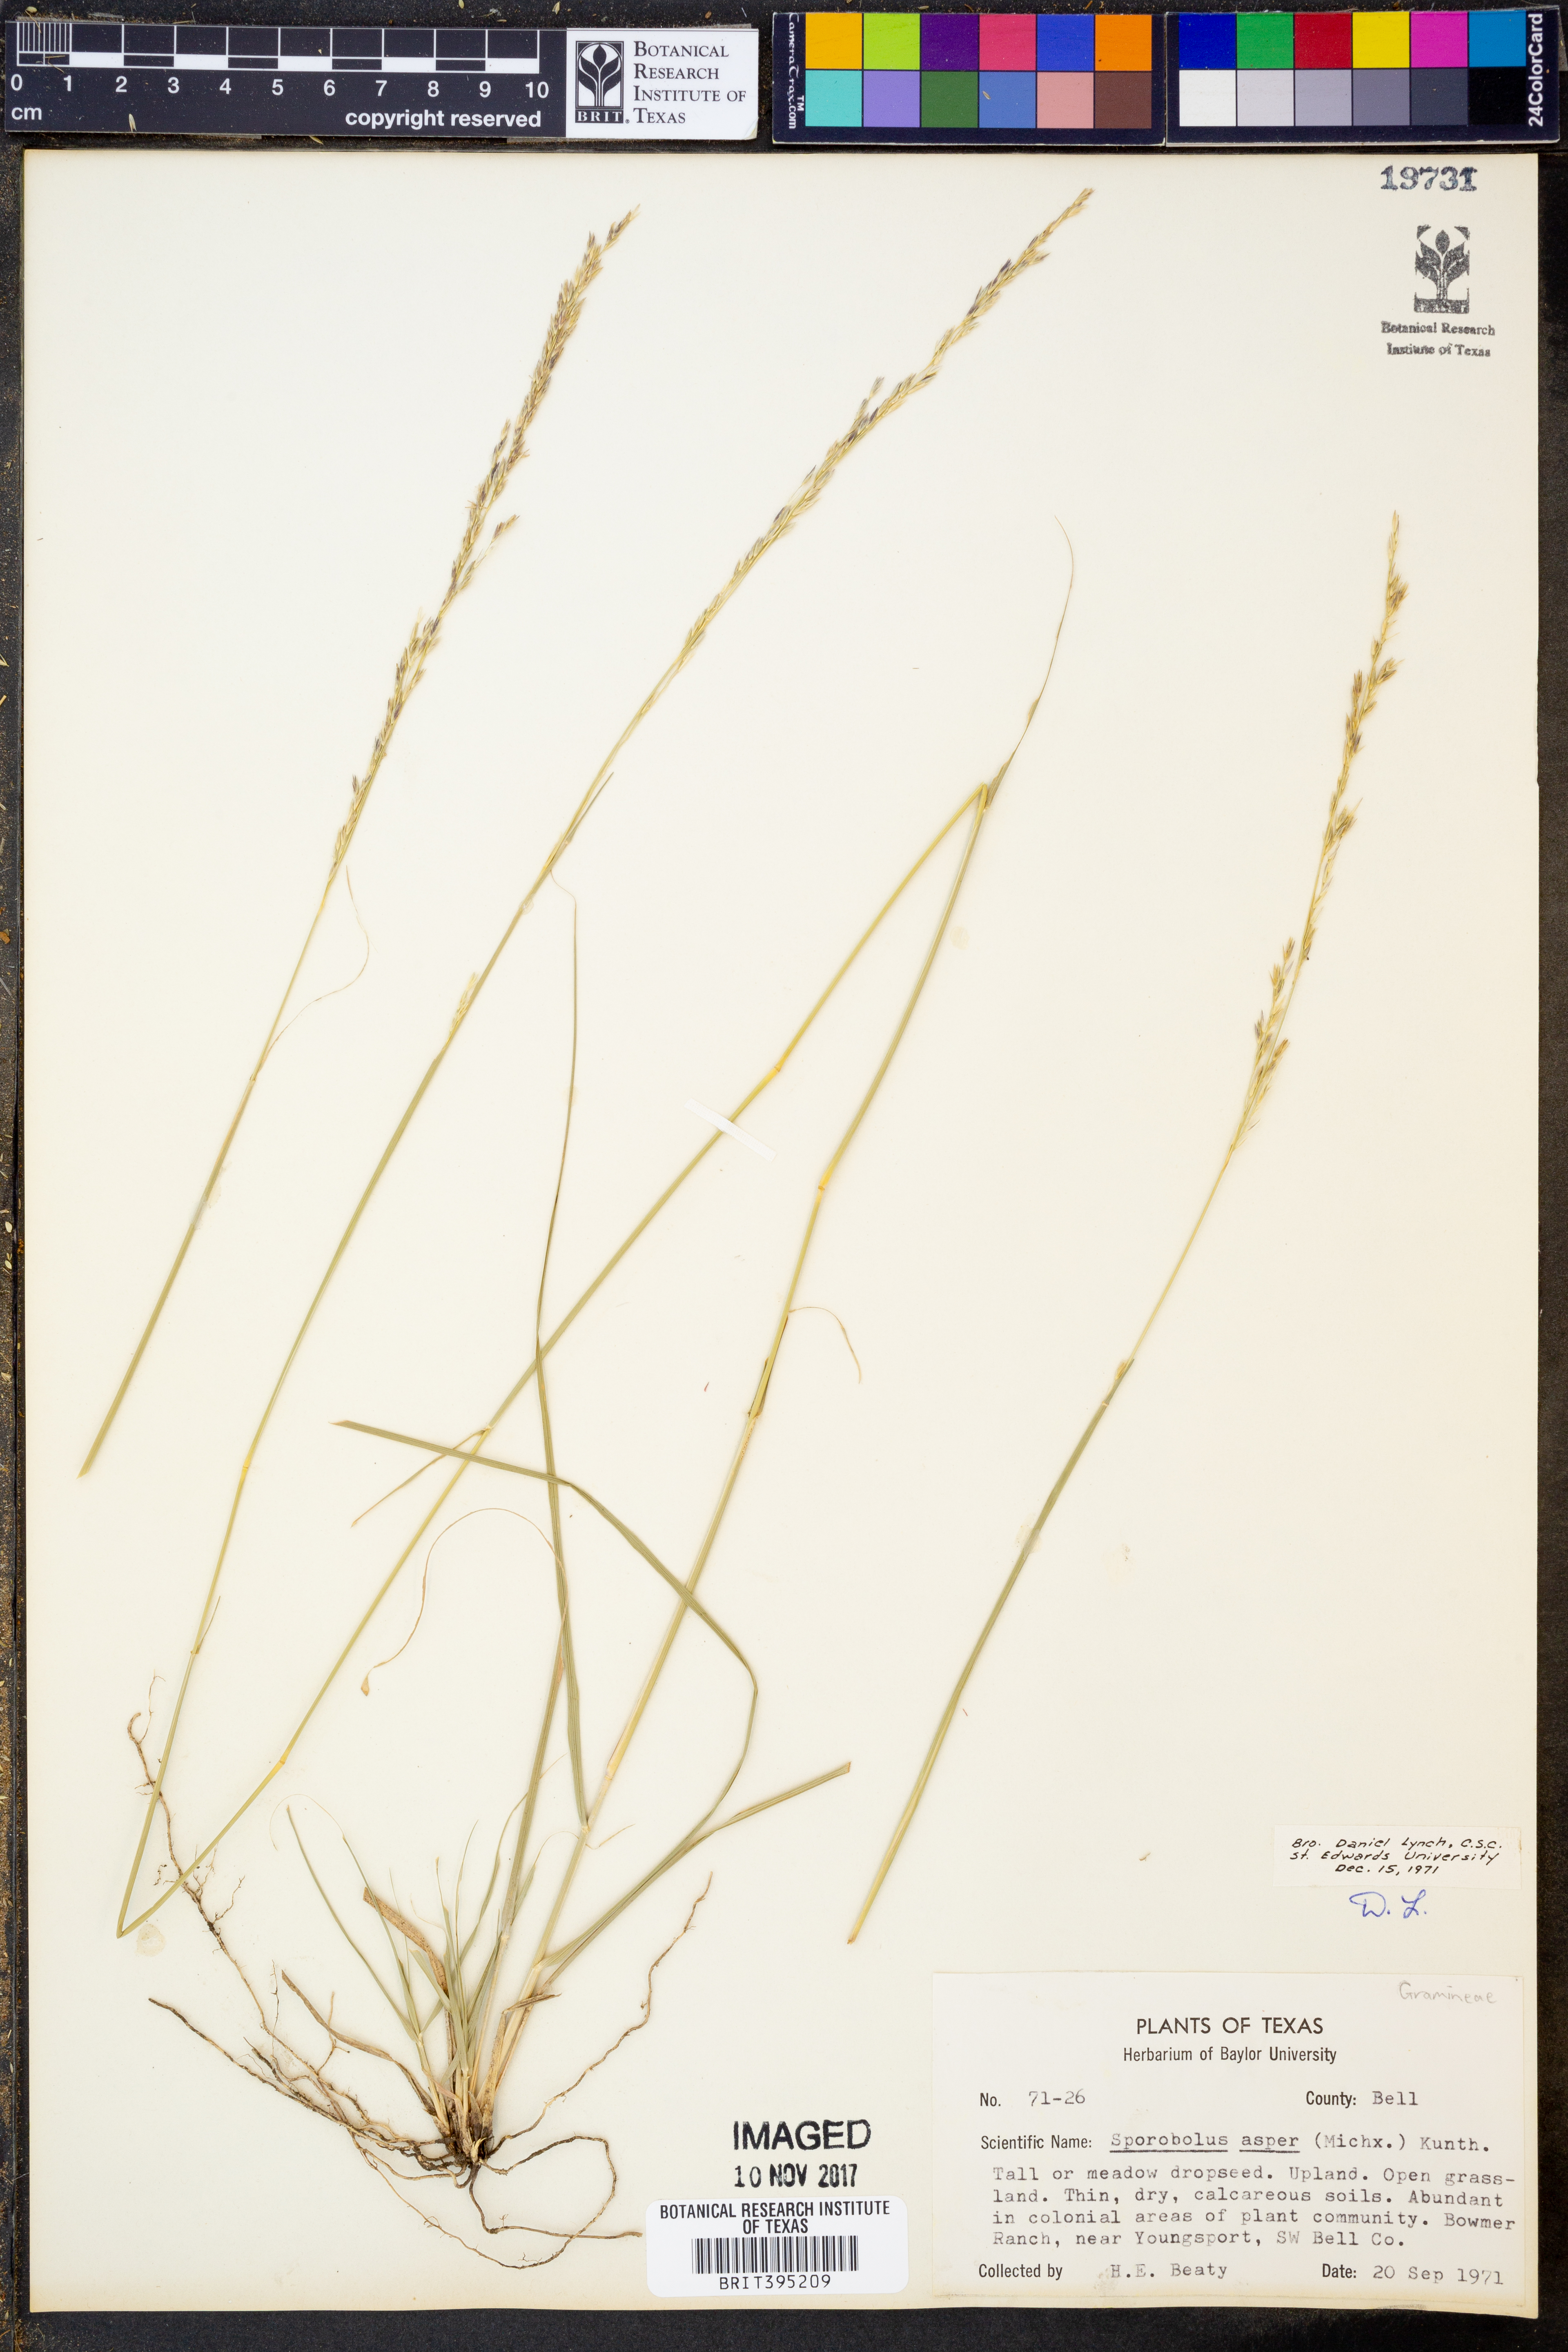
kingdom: Plantae
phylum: Tracheophyta
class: Liliopsida
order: Poales
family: Poaceae
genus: Sporobolus
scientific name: Sporobolus compositus
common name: Rough dropseed
